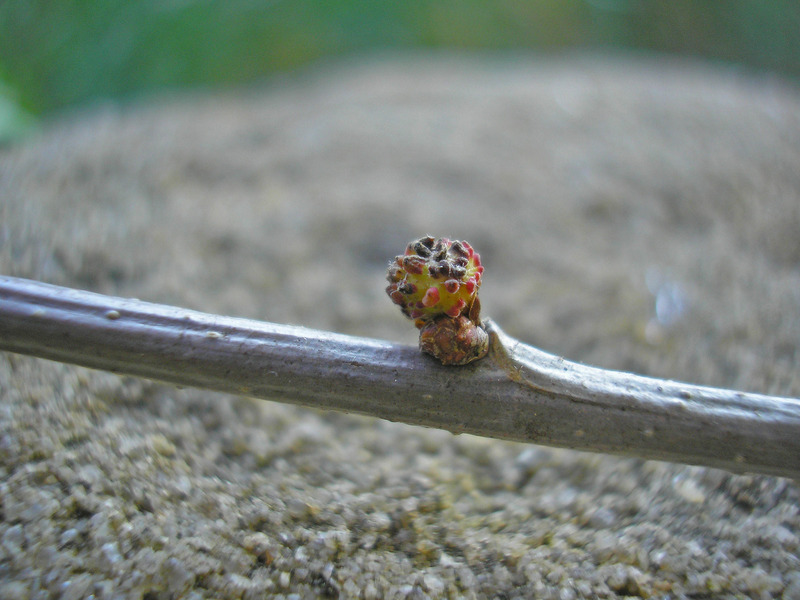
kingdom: Animalia
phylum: Arthropoda
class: Insecta
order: Hymenoptera
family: Cynipidae
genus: Andricus
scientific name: Andricus gemmeus
